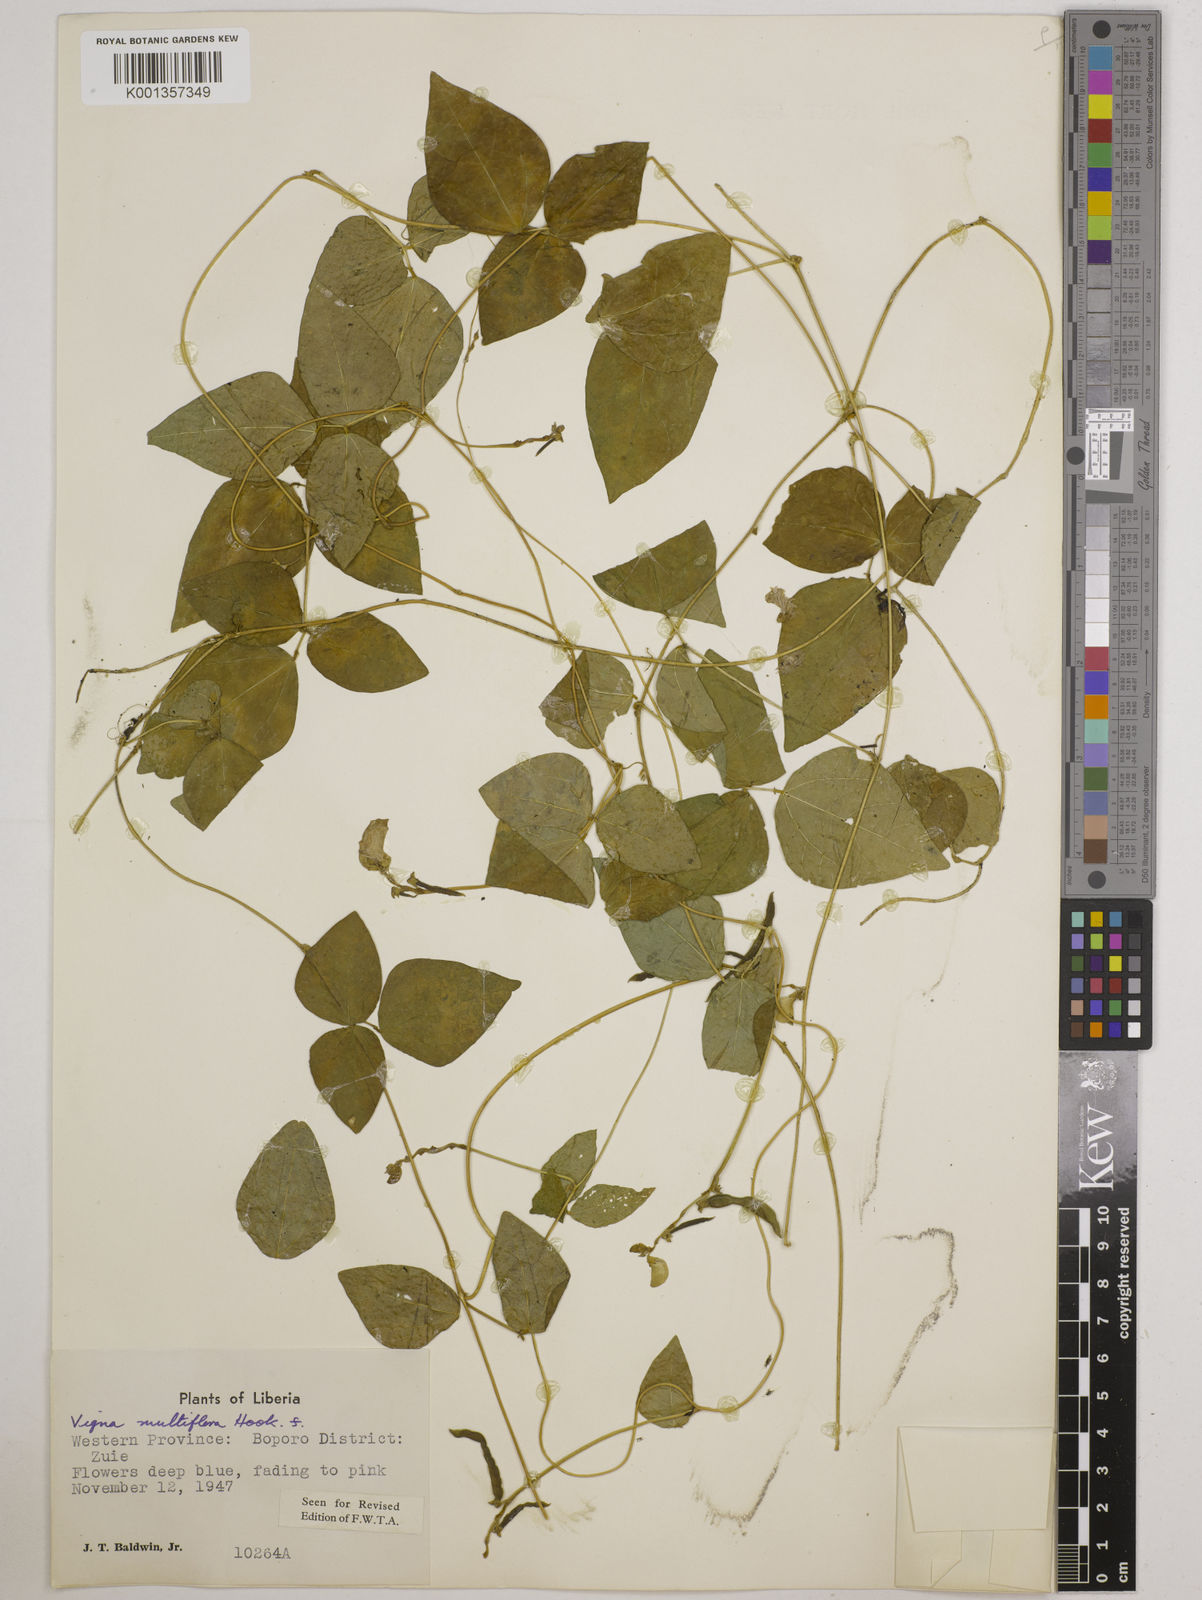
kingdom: Plantae
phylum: Tracheophyta
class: Magnoliopsida
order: Fabales
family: Fabaceae
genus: Vigna
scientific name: Vigna gracilis
